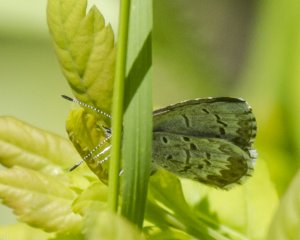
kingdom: Animalia
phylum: Arthropoda
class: Insecta
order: Lepidoptera
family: Lycaenidae
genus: Celastrina
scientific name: Celastrina lucia
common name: Northern Spring Azure
